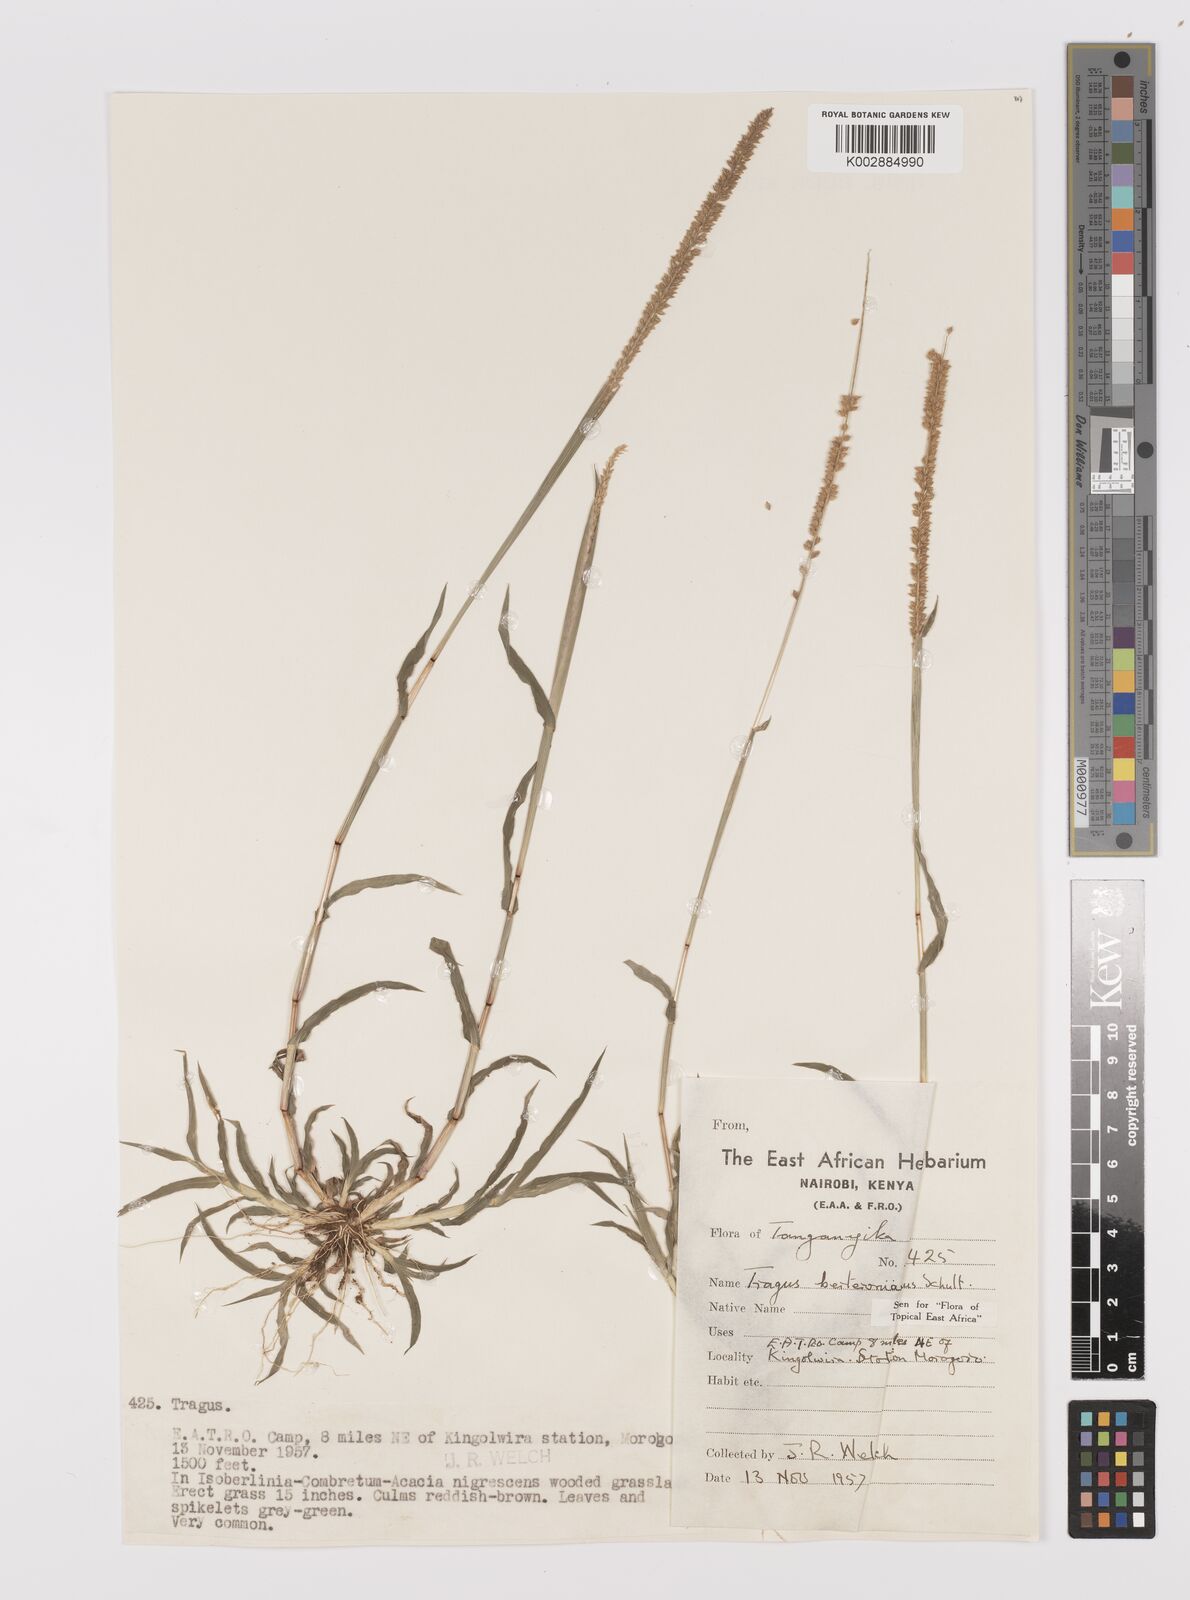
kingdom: Plantae
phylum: Tracheophyta
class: Liliopsida
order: Poales
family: Poaceae
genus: Tragus
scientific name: Tragus berteronianus
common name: African bur-grass
